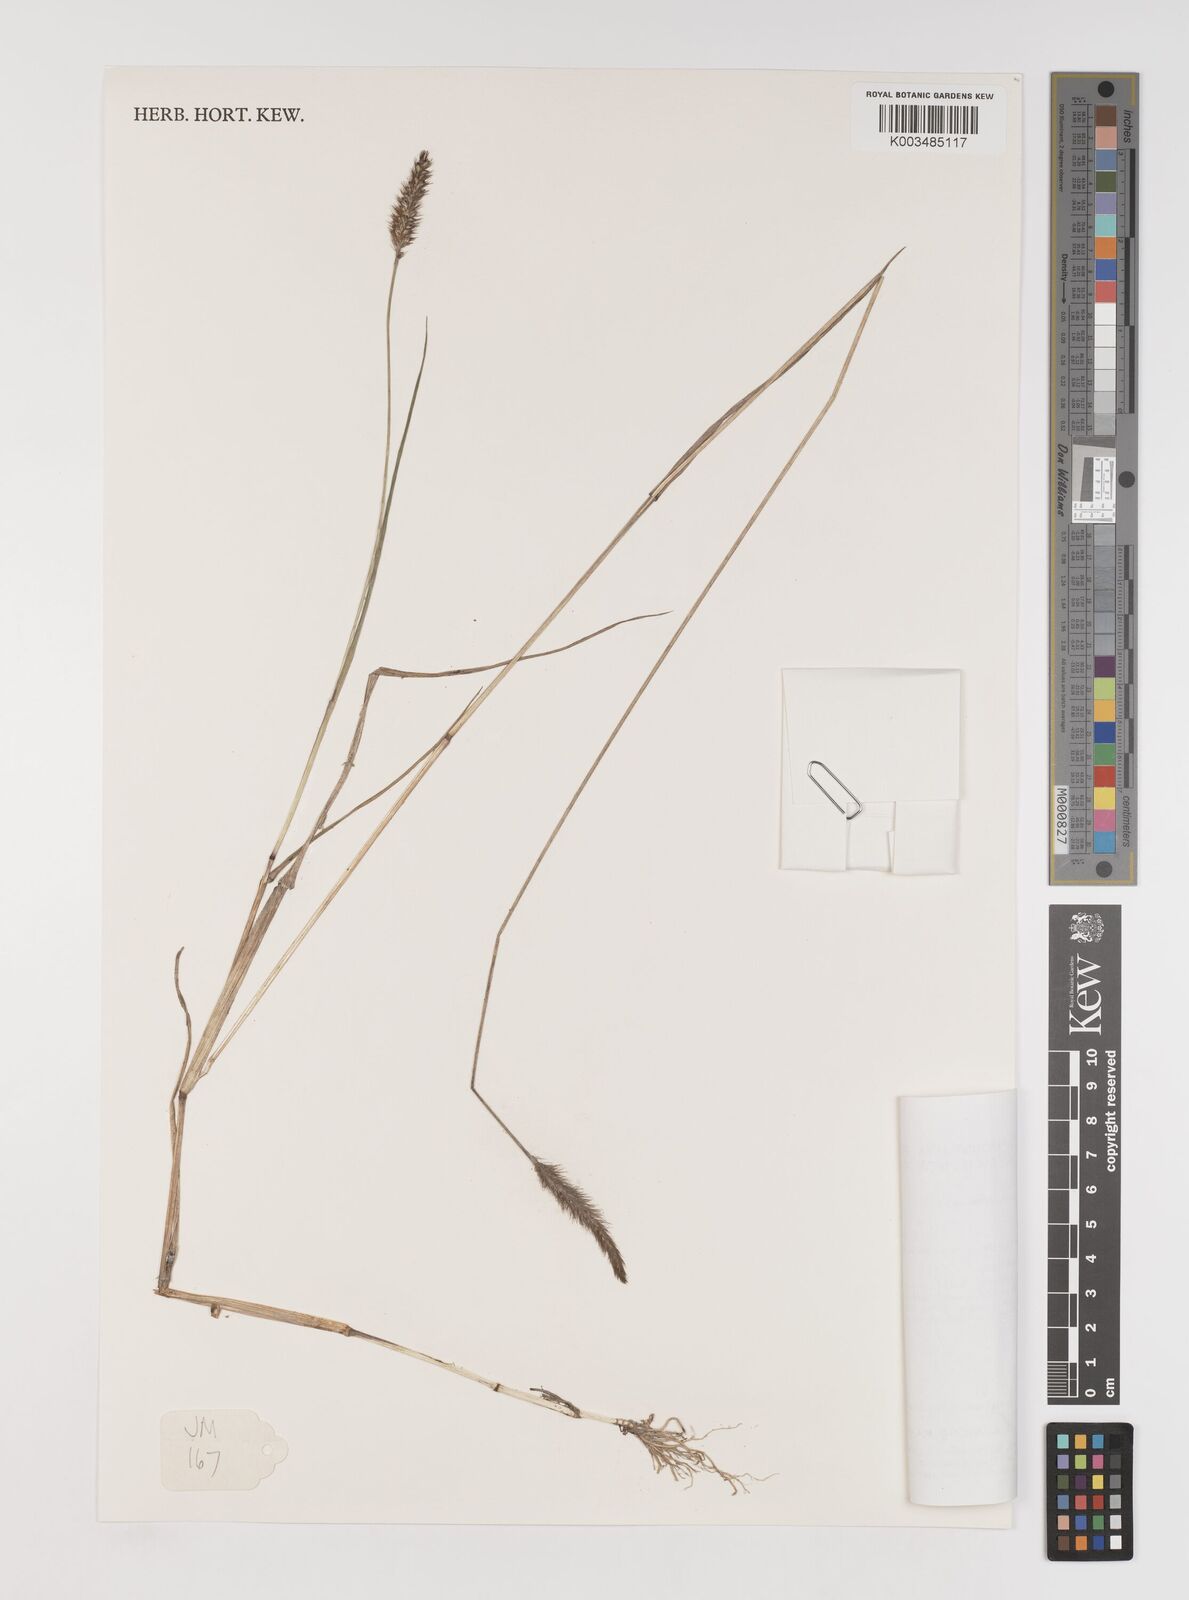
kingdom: Plantae
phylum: Tracheophyta
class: Liliopsida
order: Poales
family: Poaceae
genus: Setaria
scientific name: Setaria pumila
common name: Yellow bristle-grass
